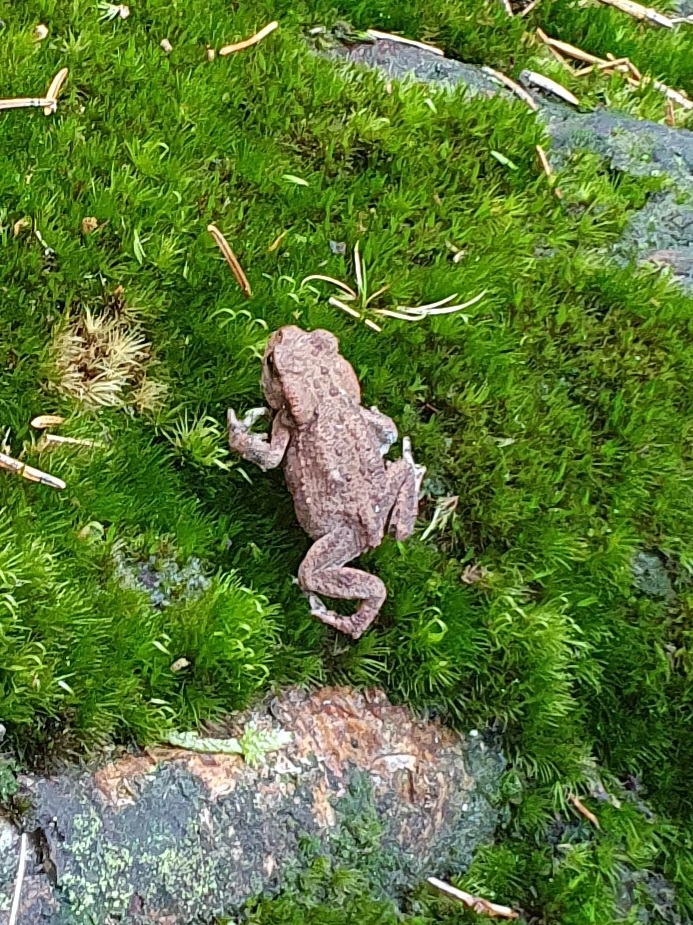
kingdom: Animalia
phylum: Chordata
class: Amphibia
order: Anura
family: Bufonidae
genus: Bufo
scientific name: Bufo bufo
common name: Skrubtudse
